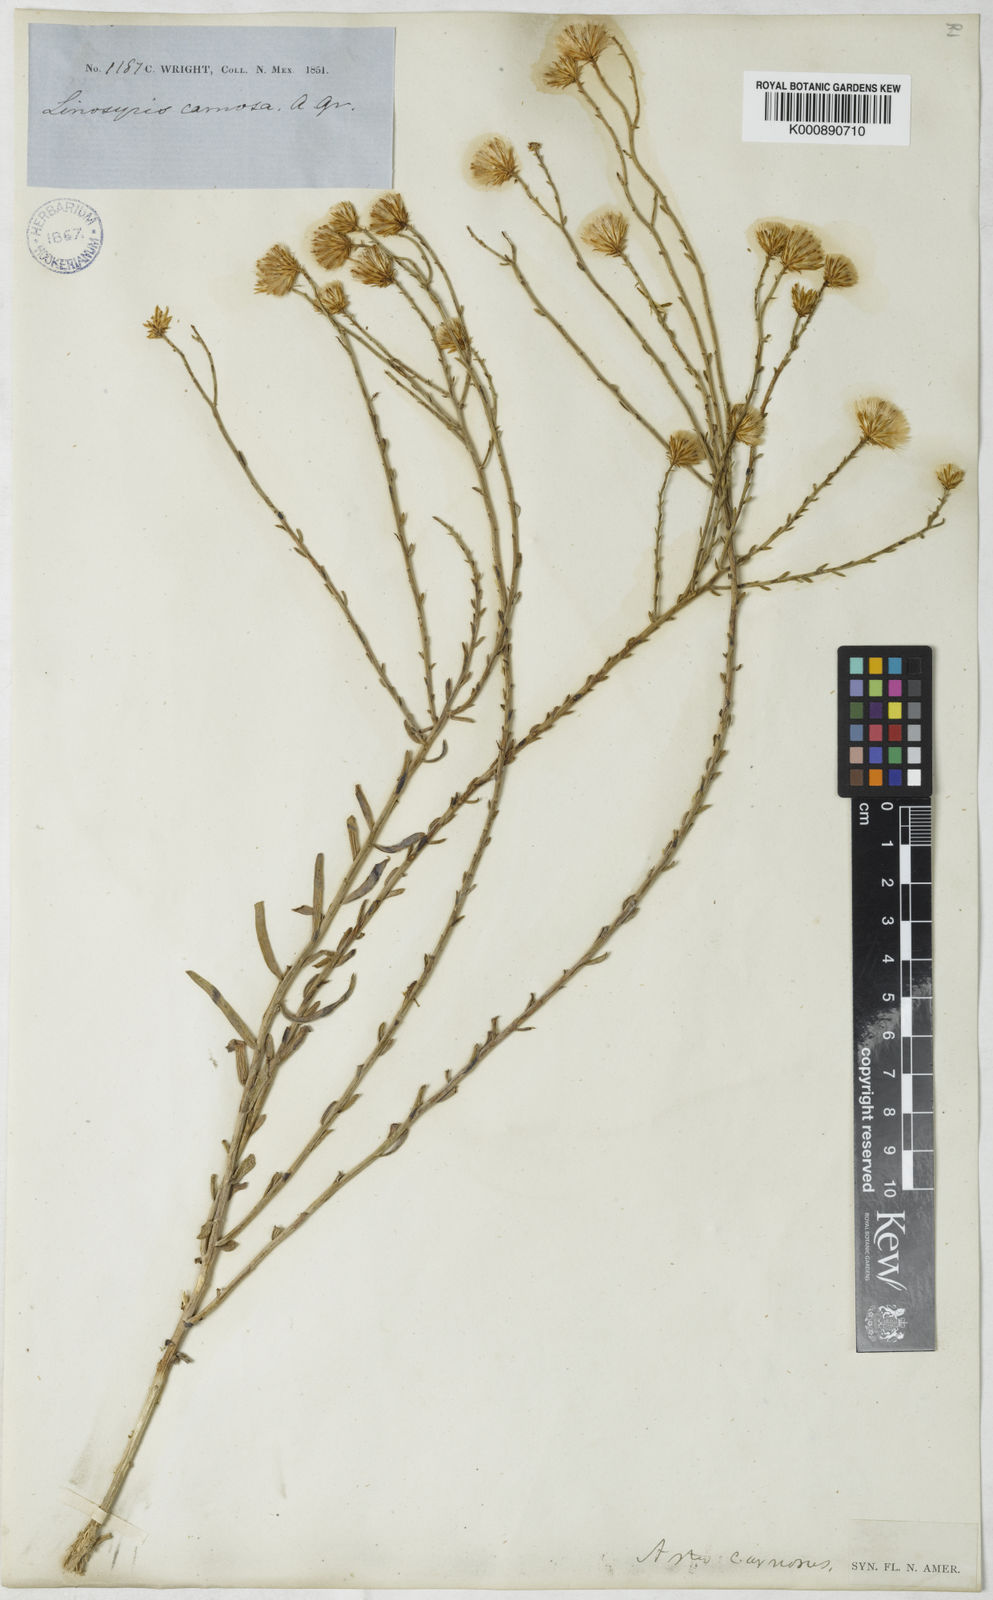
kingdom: Plantae
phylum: Tracheophyta
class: Magnoliopsida
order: Asterales
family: Asteraceae
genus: Aster
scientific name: Aster
